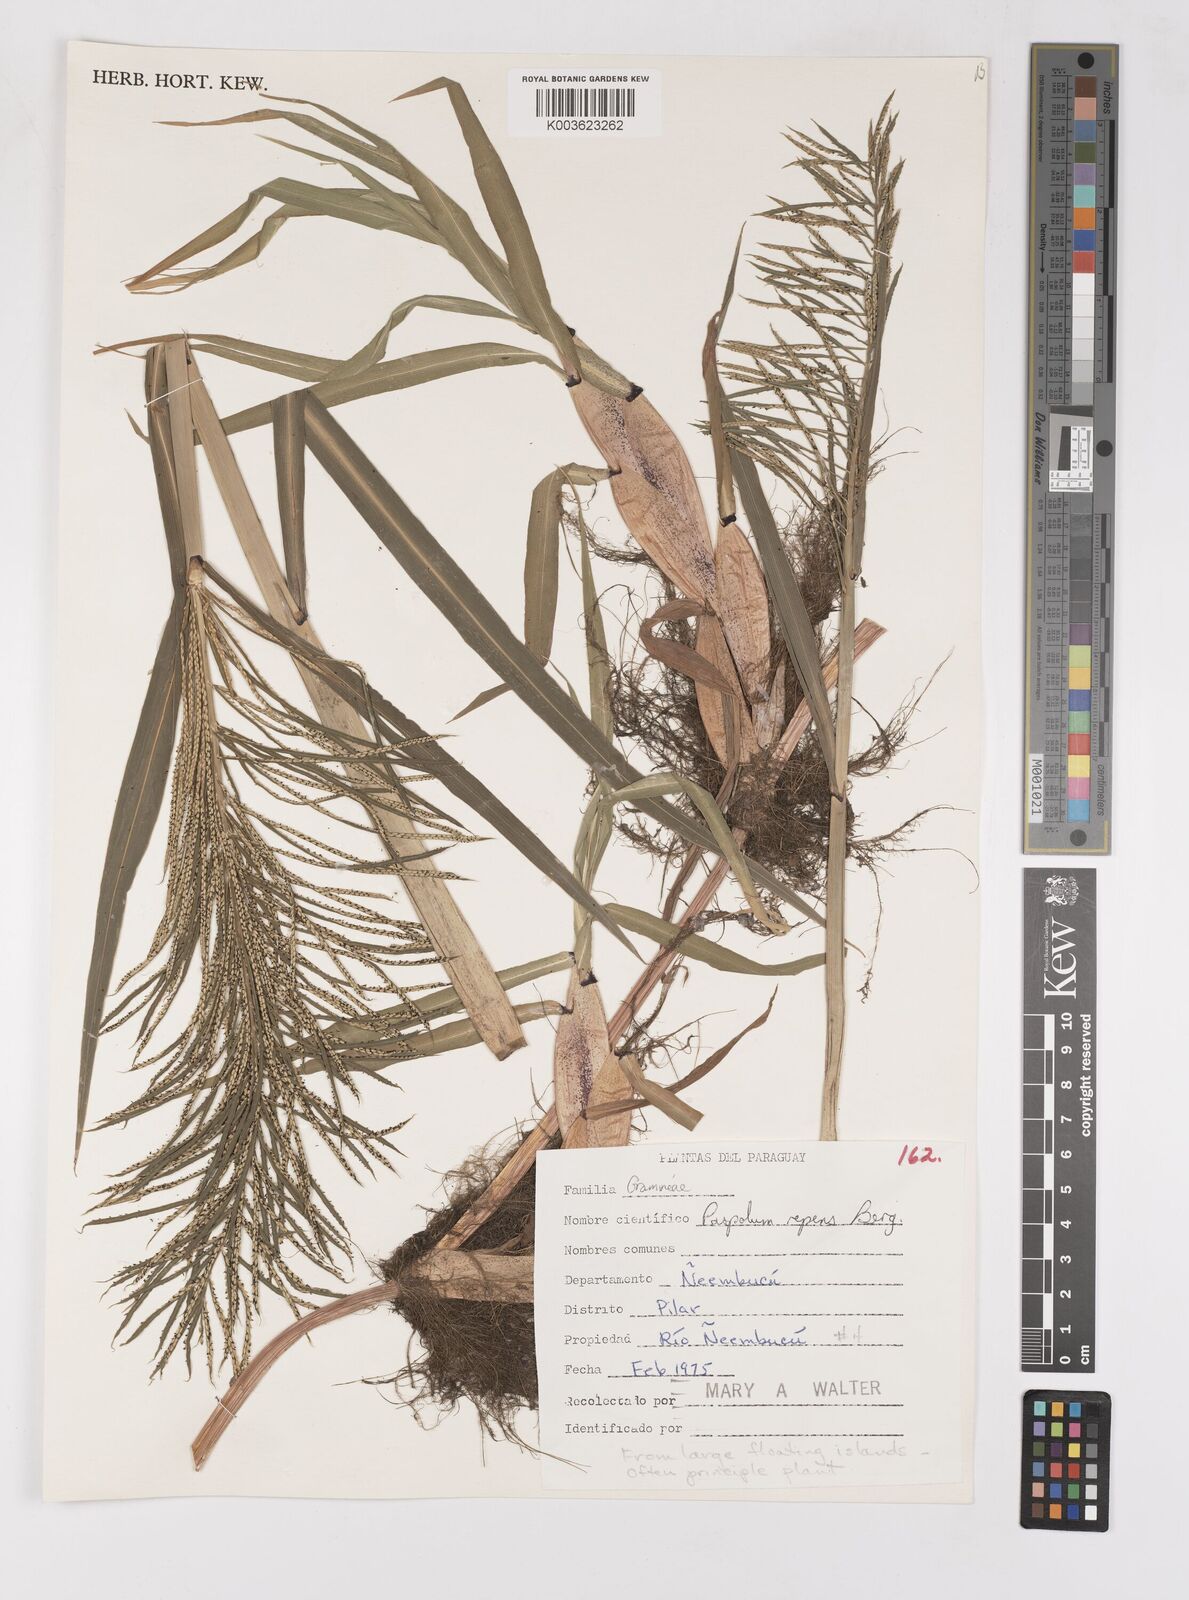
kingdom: Plantae
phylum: Tracheophyta
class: Liliopsida
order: Poales
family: Poaceae
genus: Paspalum
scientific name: Paspalum repens
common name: Water paspalum
